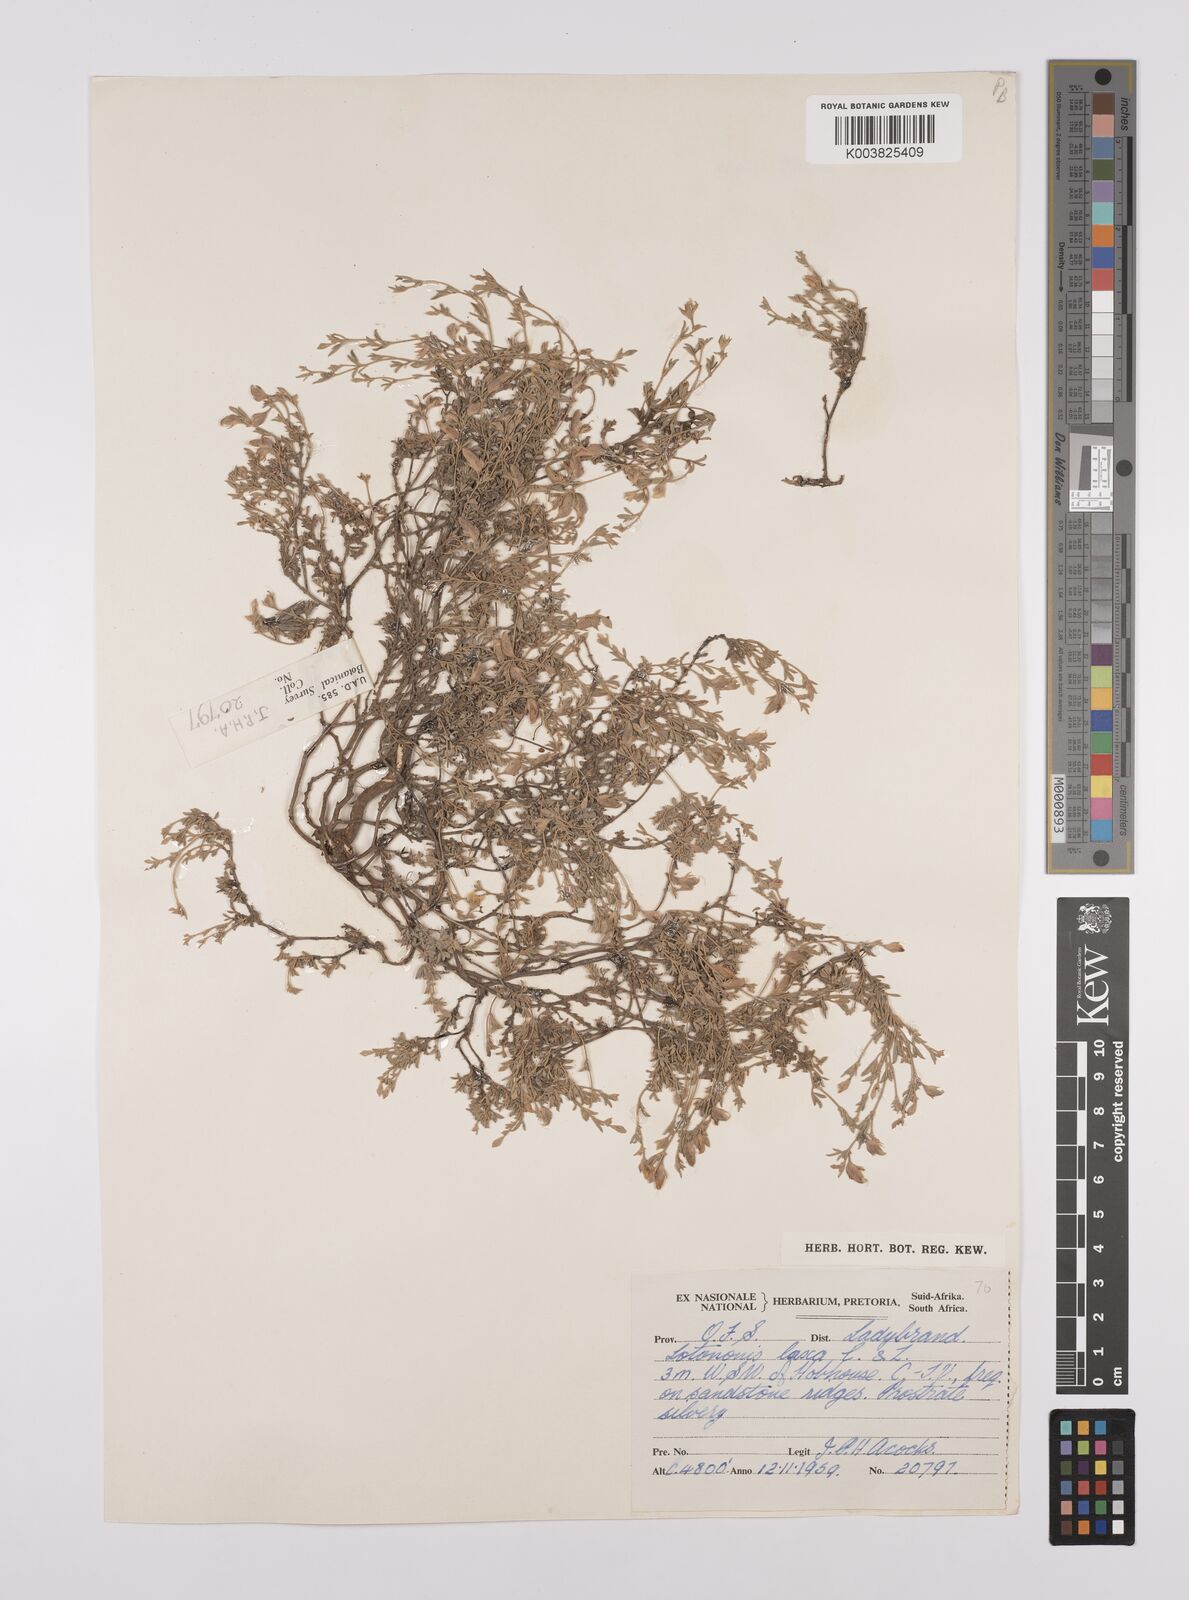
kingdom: Plantae
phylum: Tracheophyta
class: Magnoliopsida
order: Fabales
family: Fabaceae
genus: Lotononis
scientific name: Lotononis laxa
